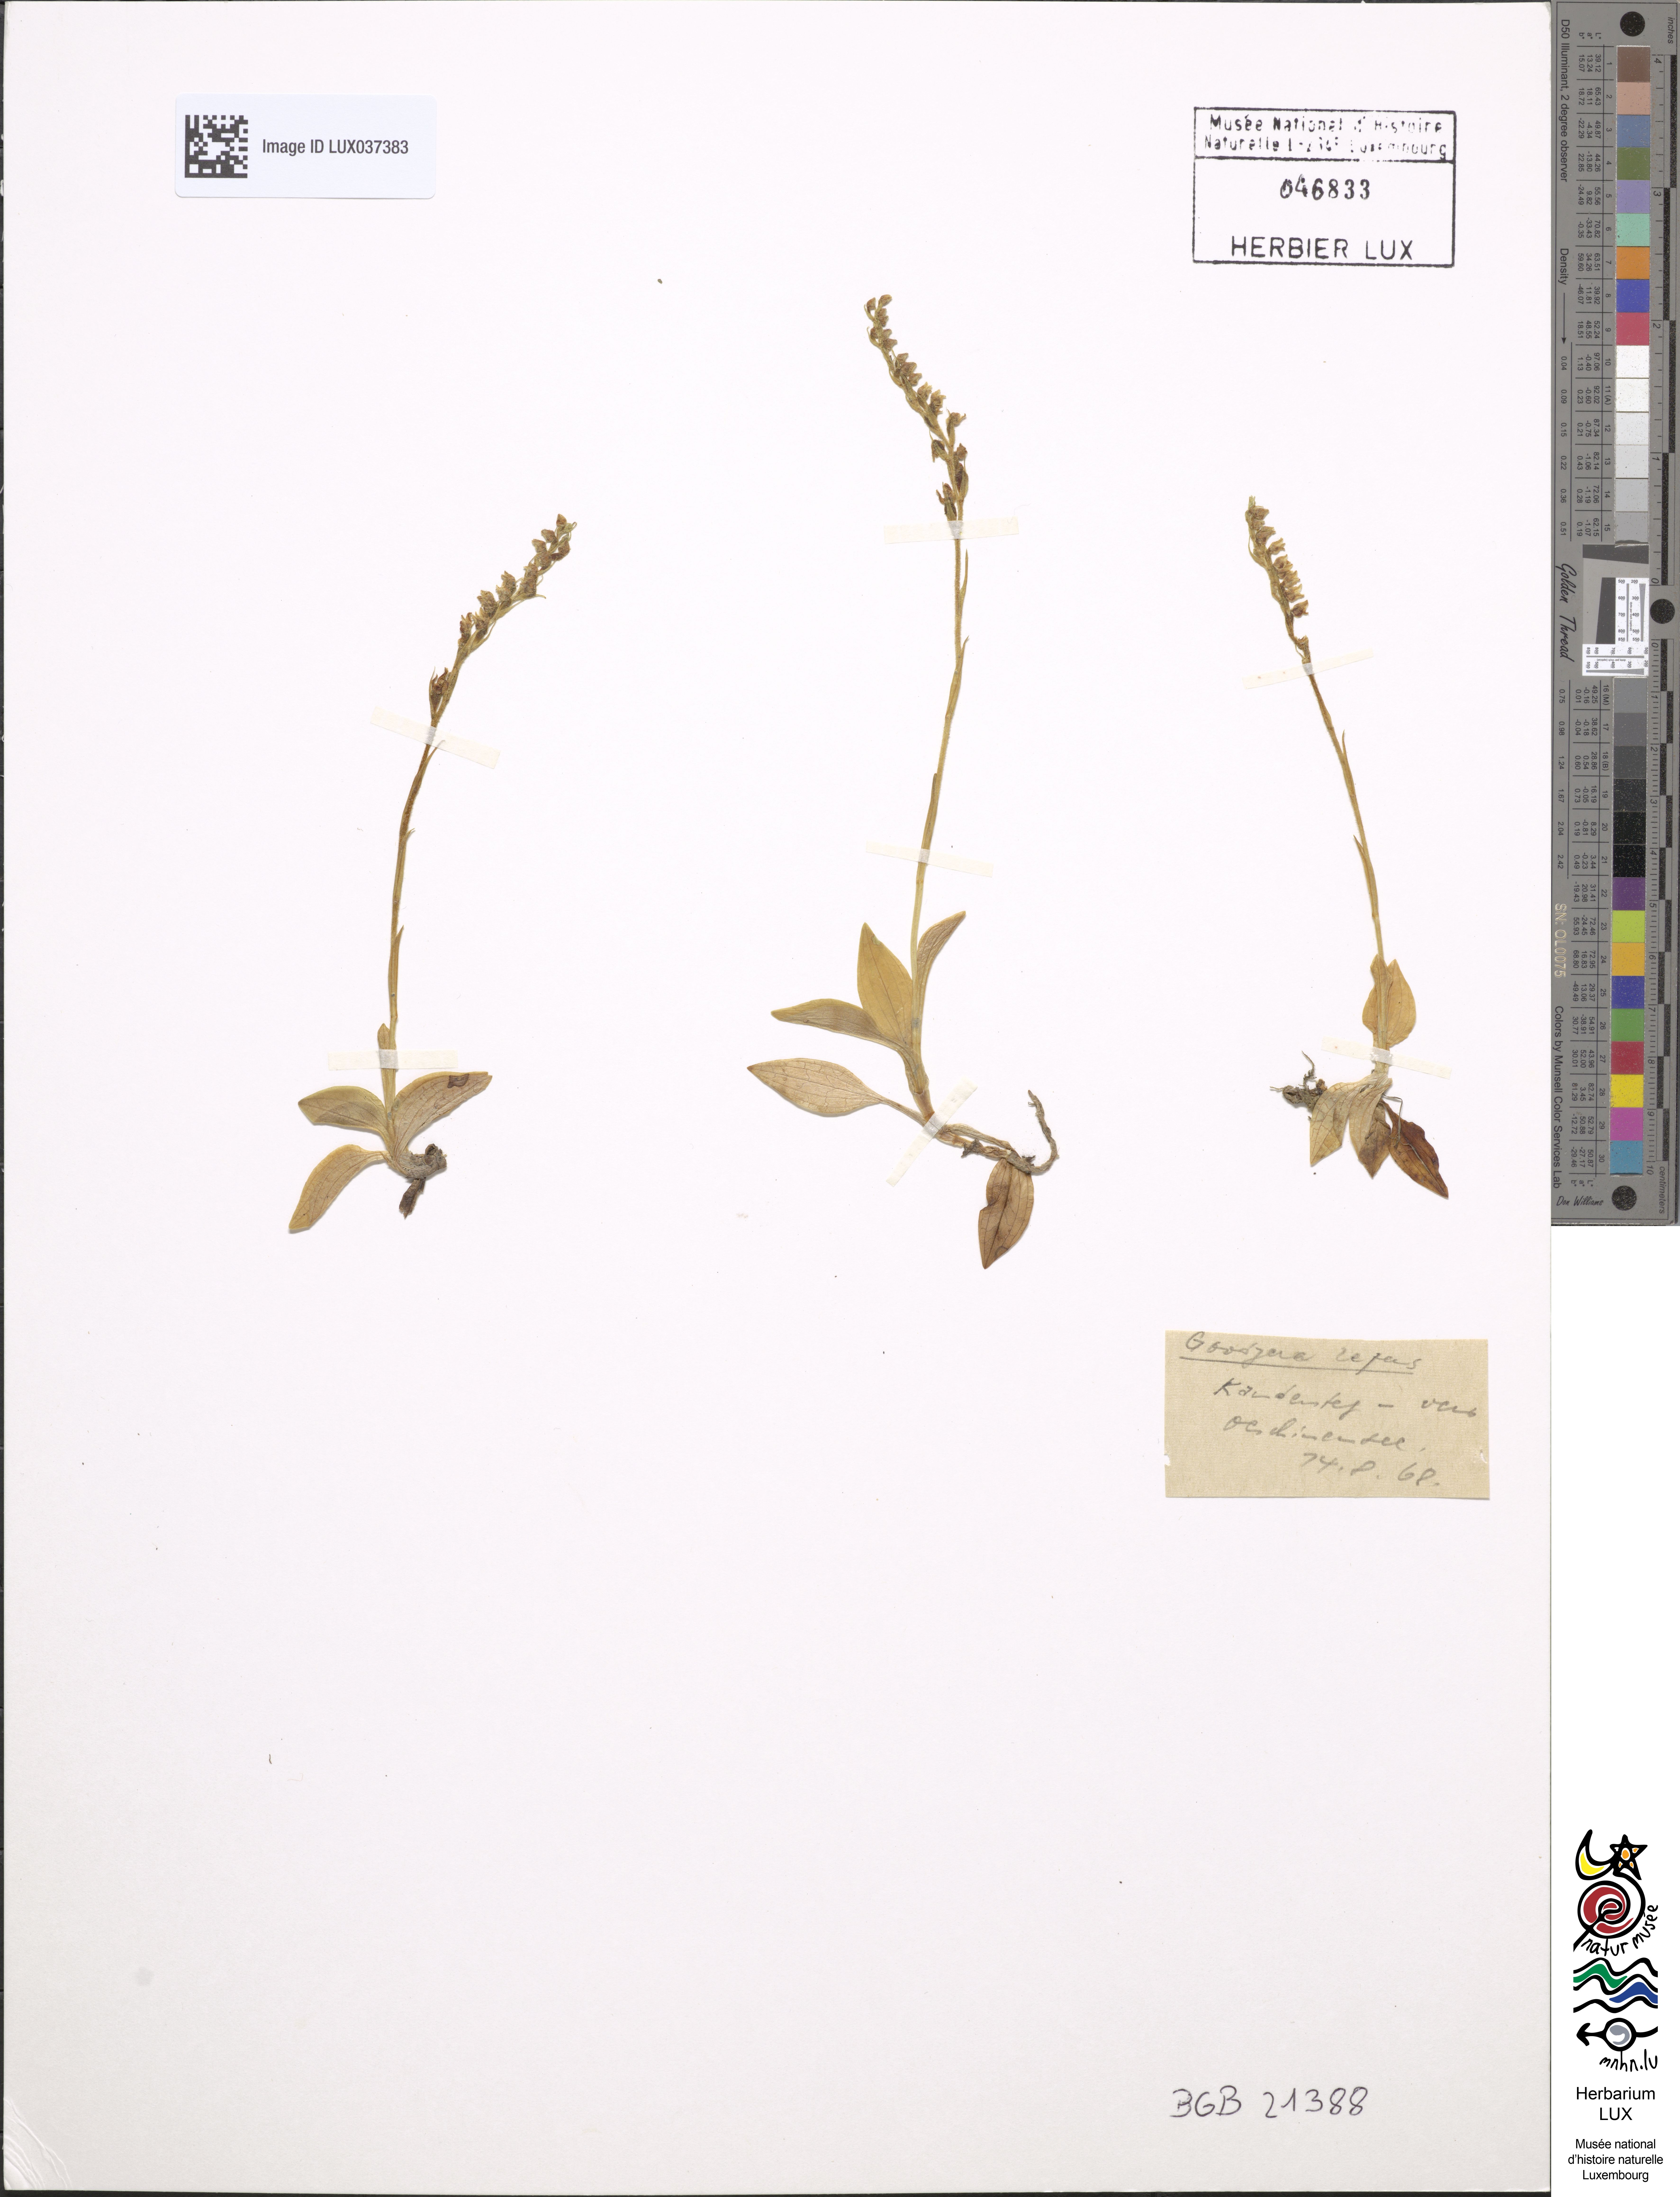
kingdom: Plantae
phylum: Tracheophyta
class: Liliopsida
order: Asparagales
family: Orchidaceae
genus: Goodyera
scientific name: Goodyera repens
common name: Creeping lady's-tresses
